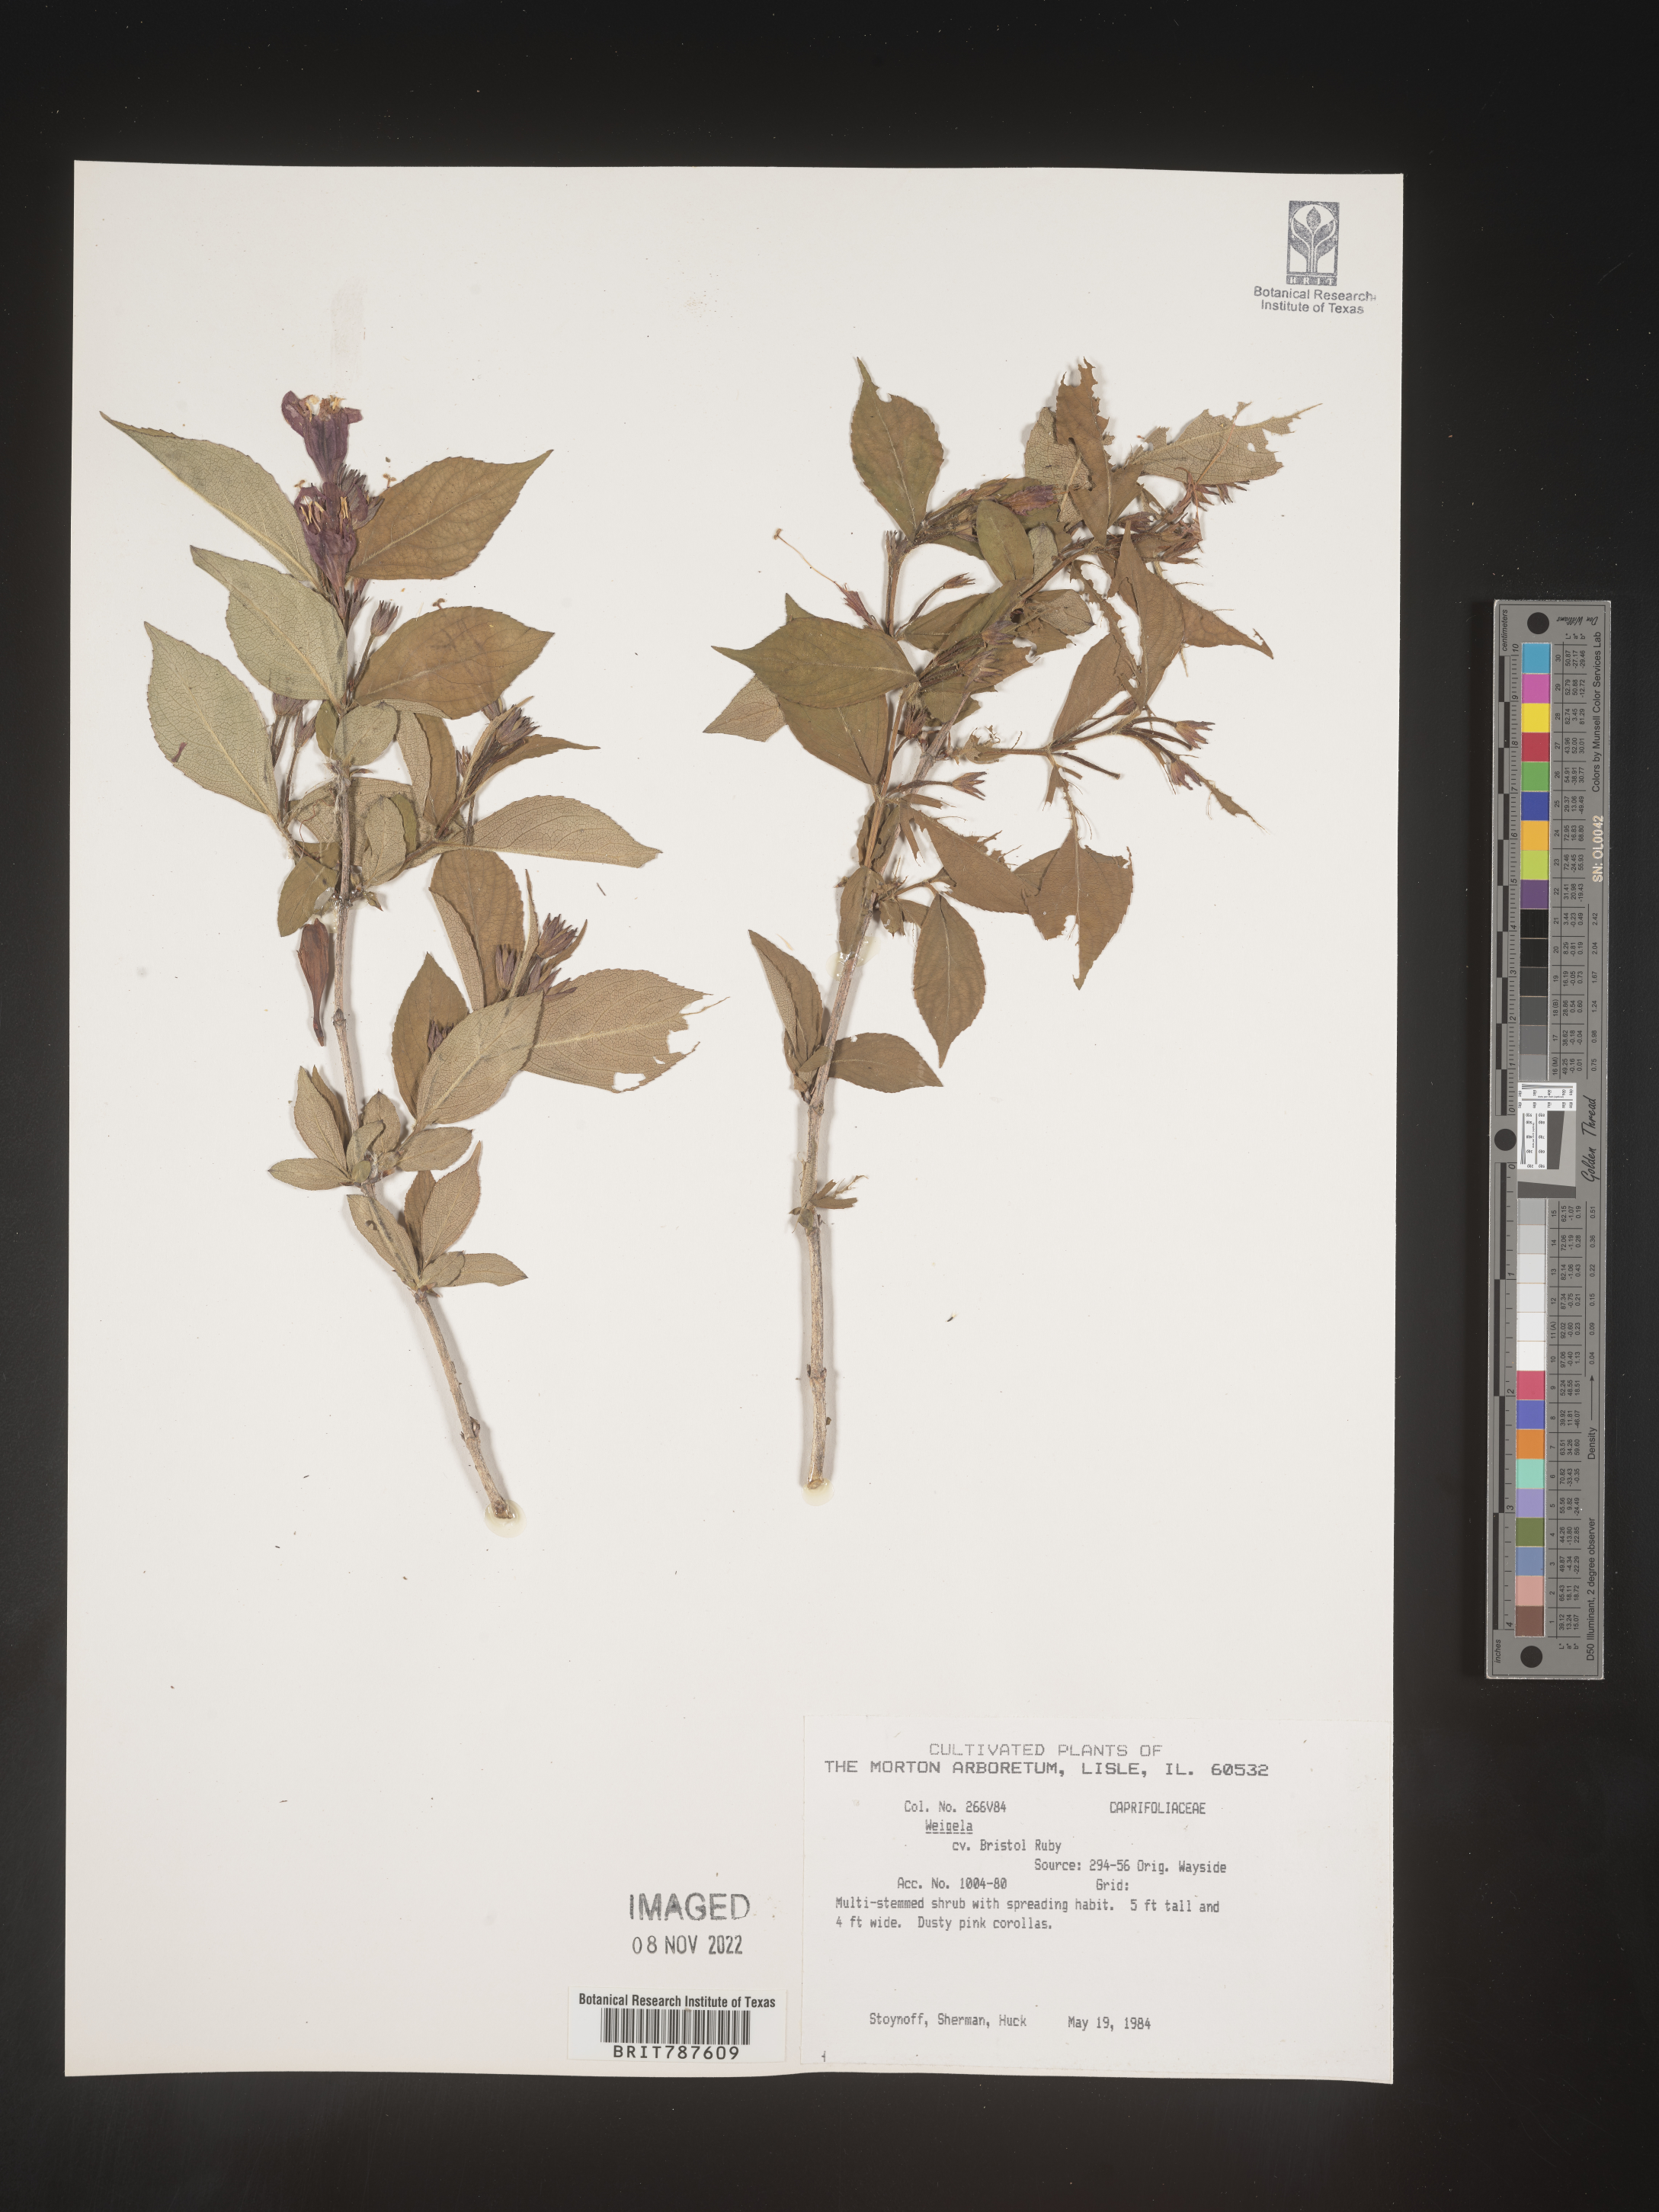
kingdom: Plantae
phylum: Tracheophyta
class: Magnoliopsida
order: Dipsacales
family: Caprifoliaceae
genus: Weigela
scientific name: Weigela
